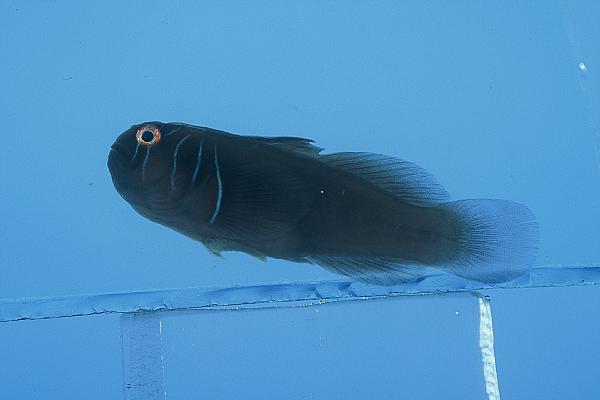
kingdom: Animalia
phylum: Chordata
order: Perciformes
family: Gobiidae
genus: Gobiodon
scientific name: Gobiodon prolixus
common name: Elongate coralgoby
